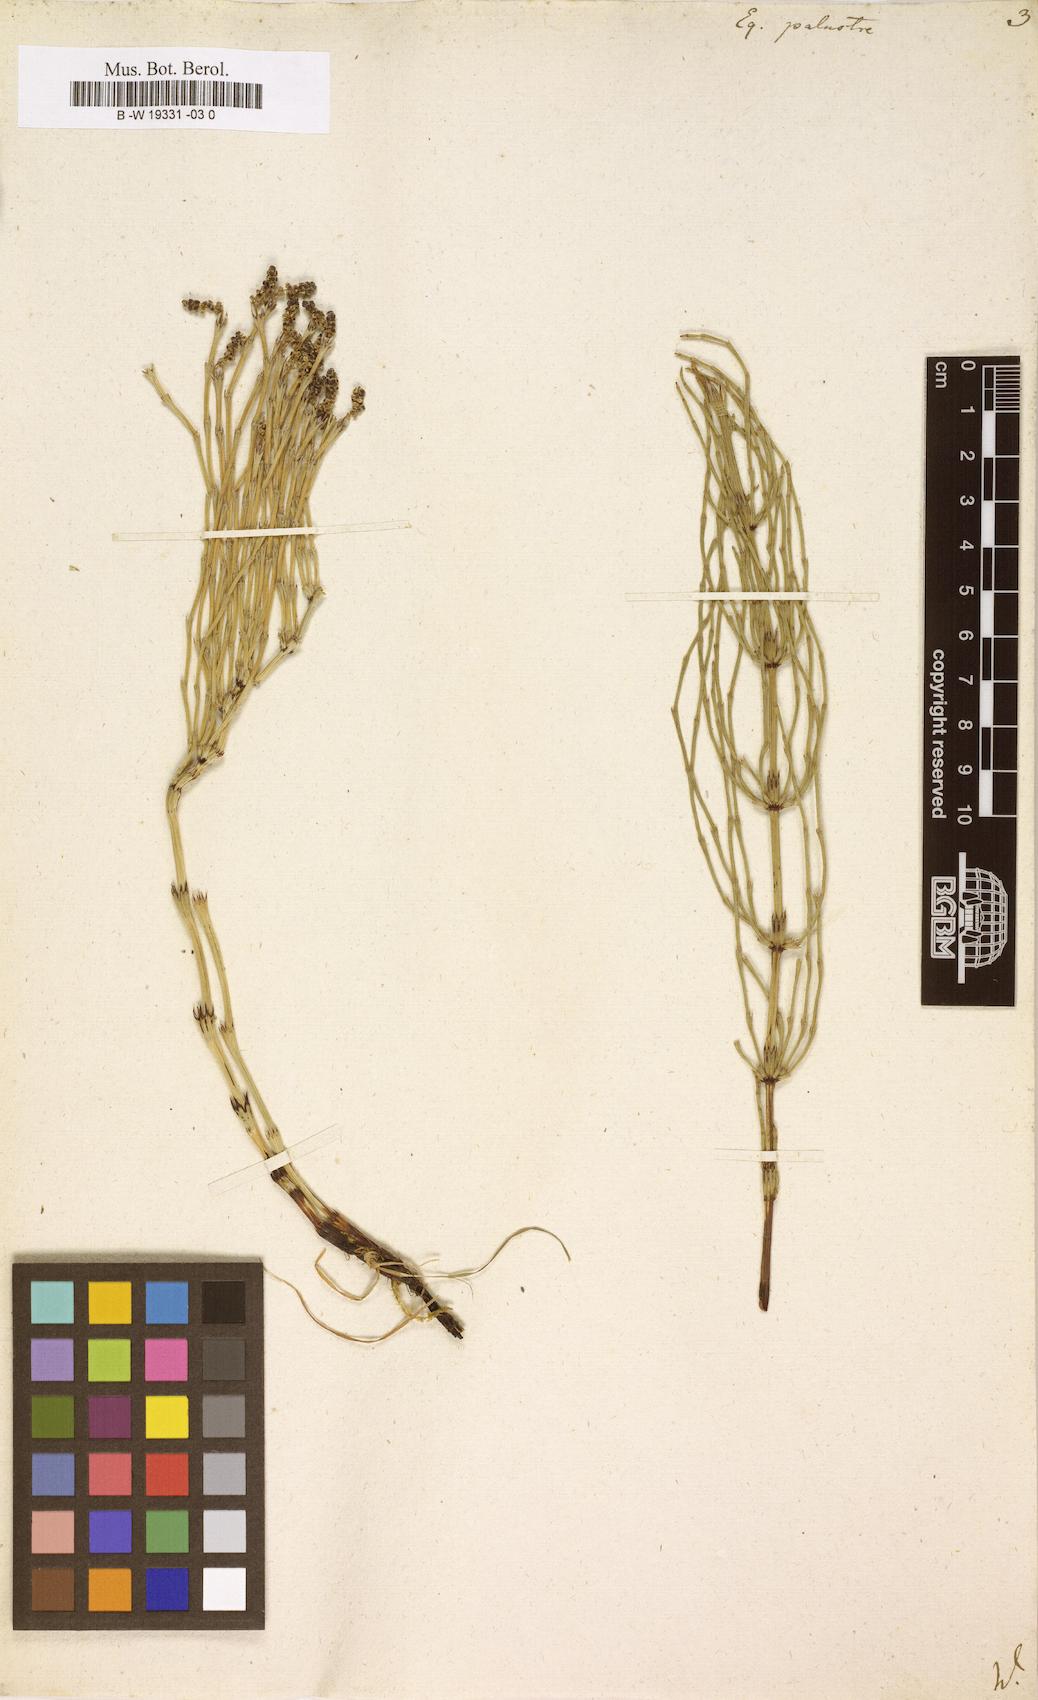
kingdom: Plantae
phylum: Tracheophyta
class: Polypodiopsida
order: Equisetales
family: Equisetaceae
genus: Equisetum
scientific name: Equisetum palustre
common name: Marsh horsetail
